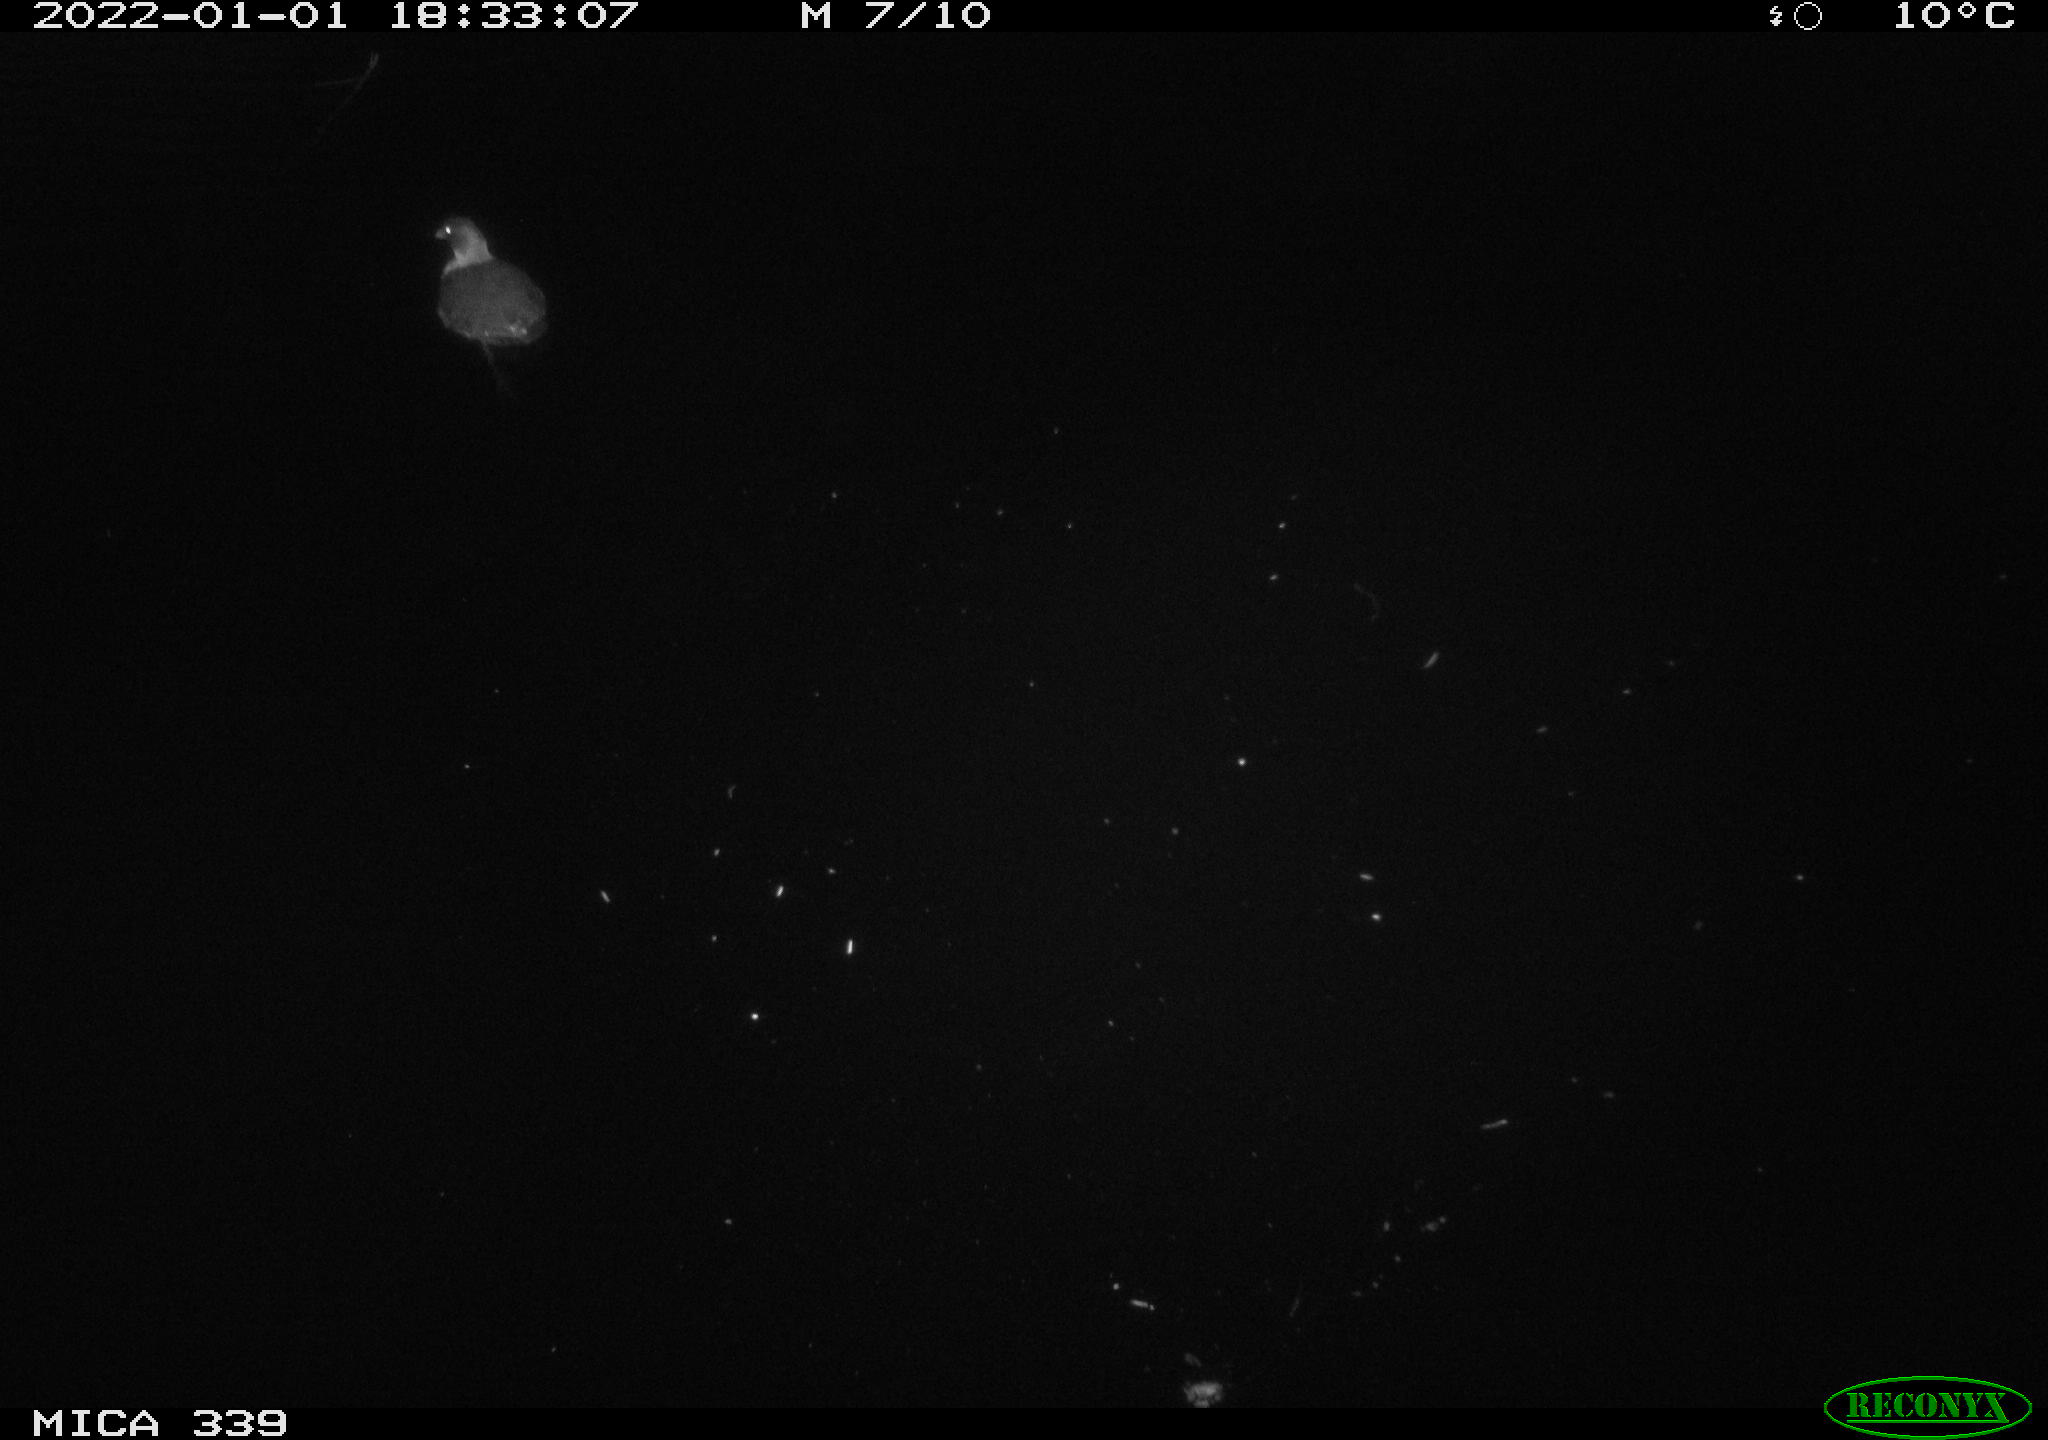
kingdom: Animalia
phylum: Chordata
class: Aves
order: Gruiformes
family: Rallidae
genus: Gallinula
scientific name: Gallinula chloropus
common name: Common moorhen
